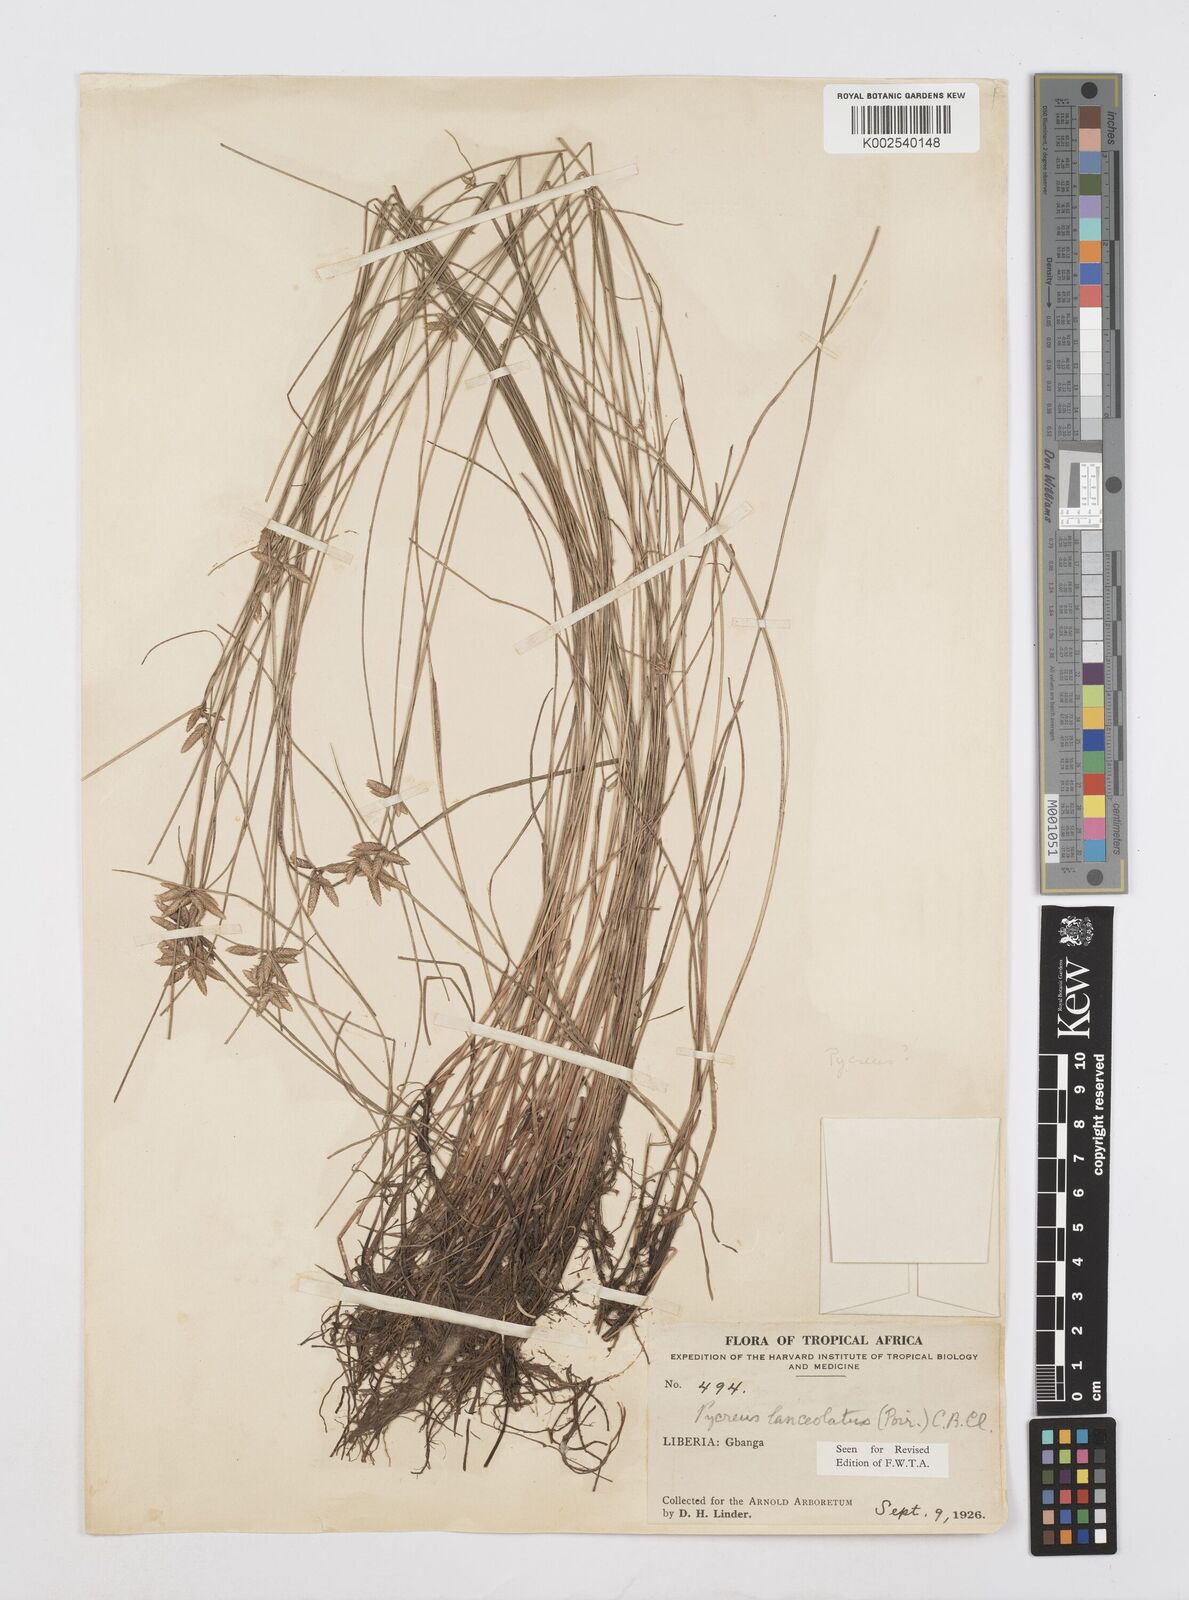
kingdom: Plantae
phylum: Tracheophyta
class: Liliopsida
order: Poales
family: Cyperaceae
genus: Cyperus
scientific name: Cyperus
